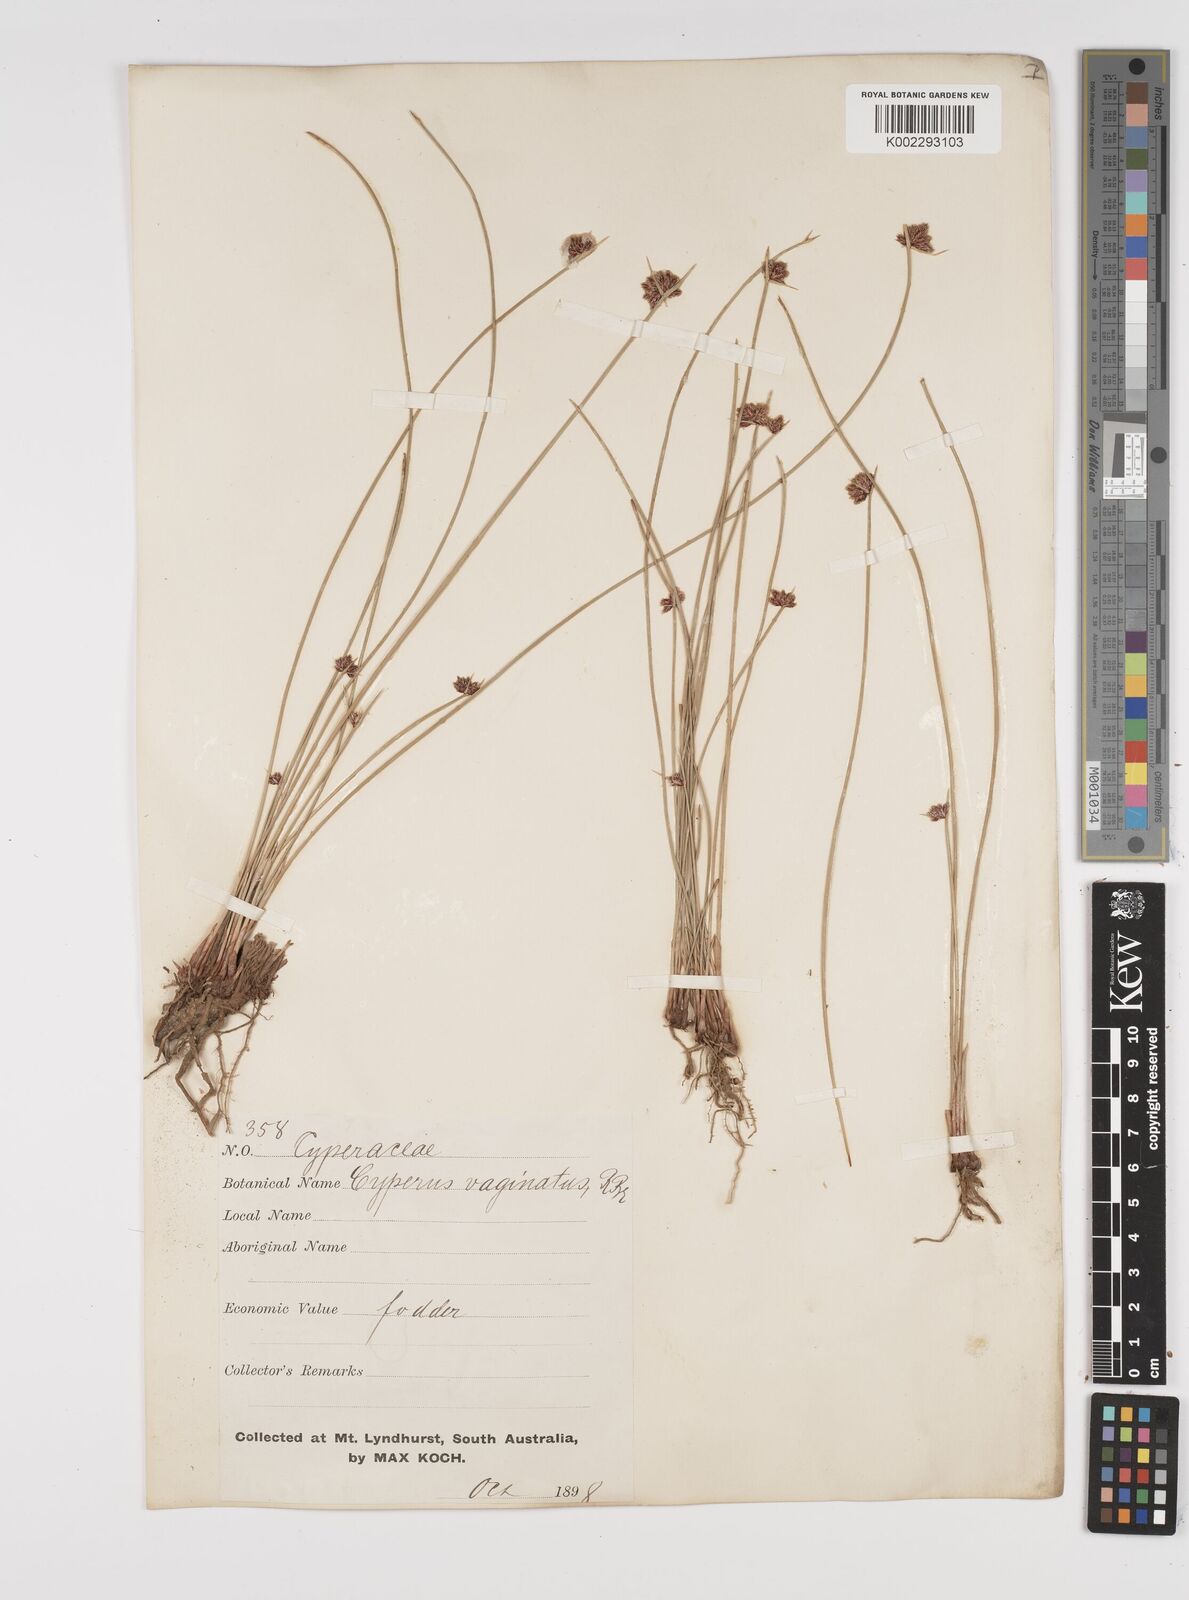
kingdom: Plantae
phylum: Tracheophyta
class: Liliopsida
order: Poales
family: Cyperaceae
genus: Cyperus
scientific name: Cyperus gymnocaulos
